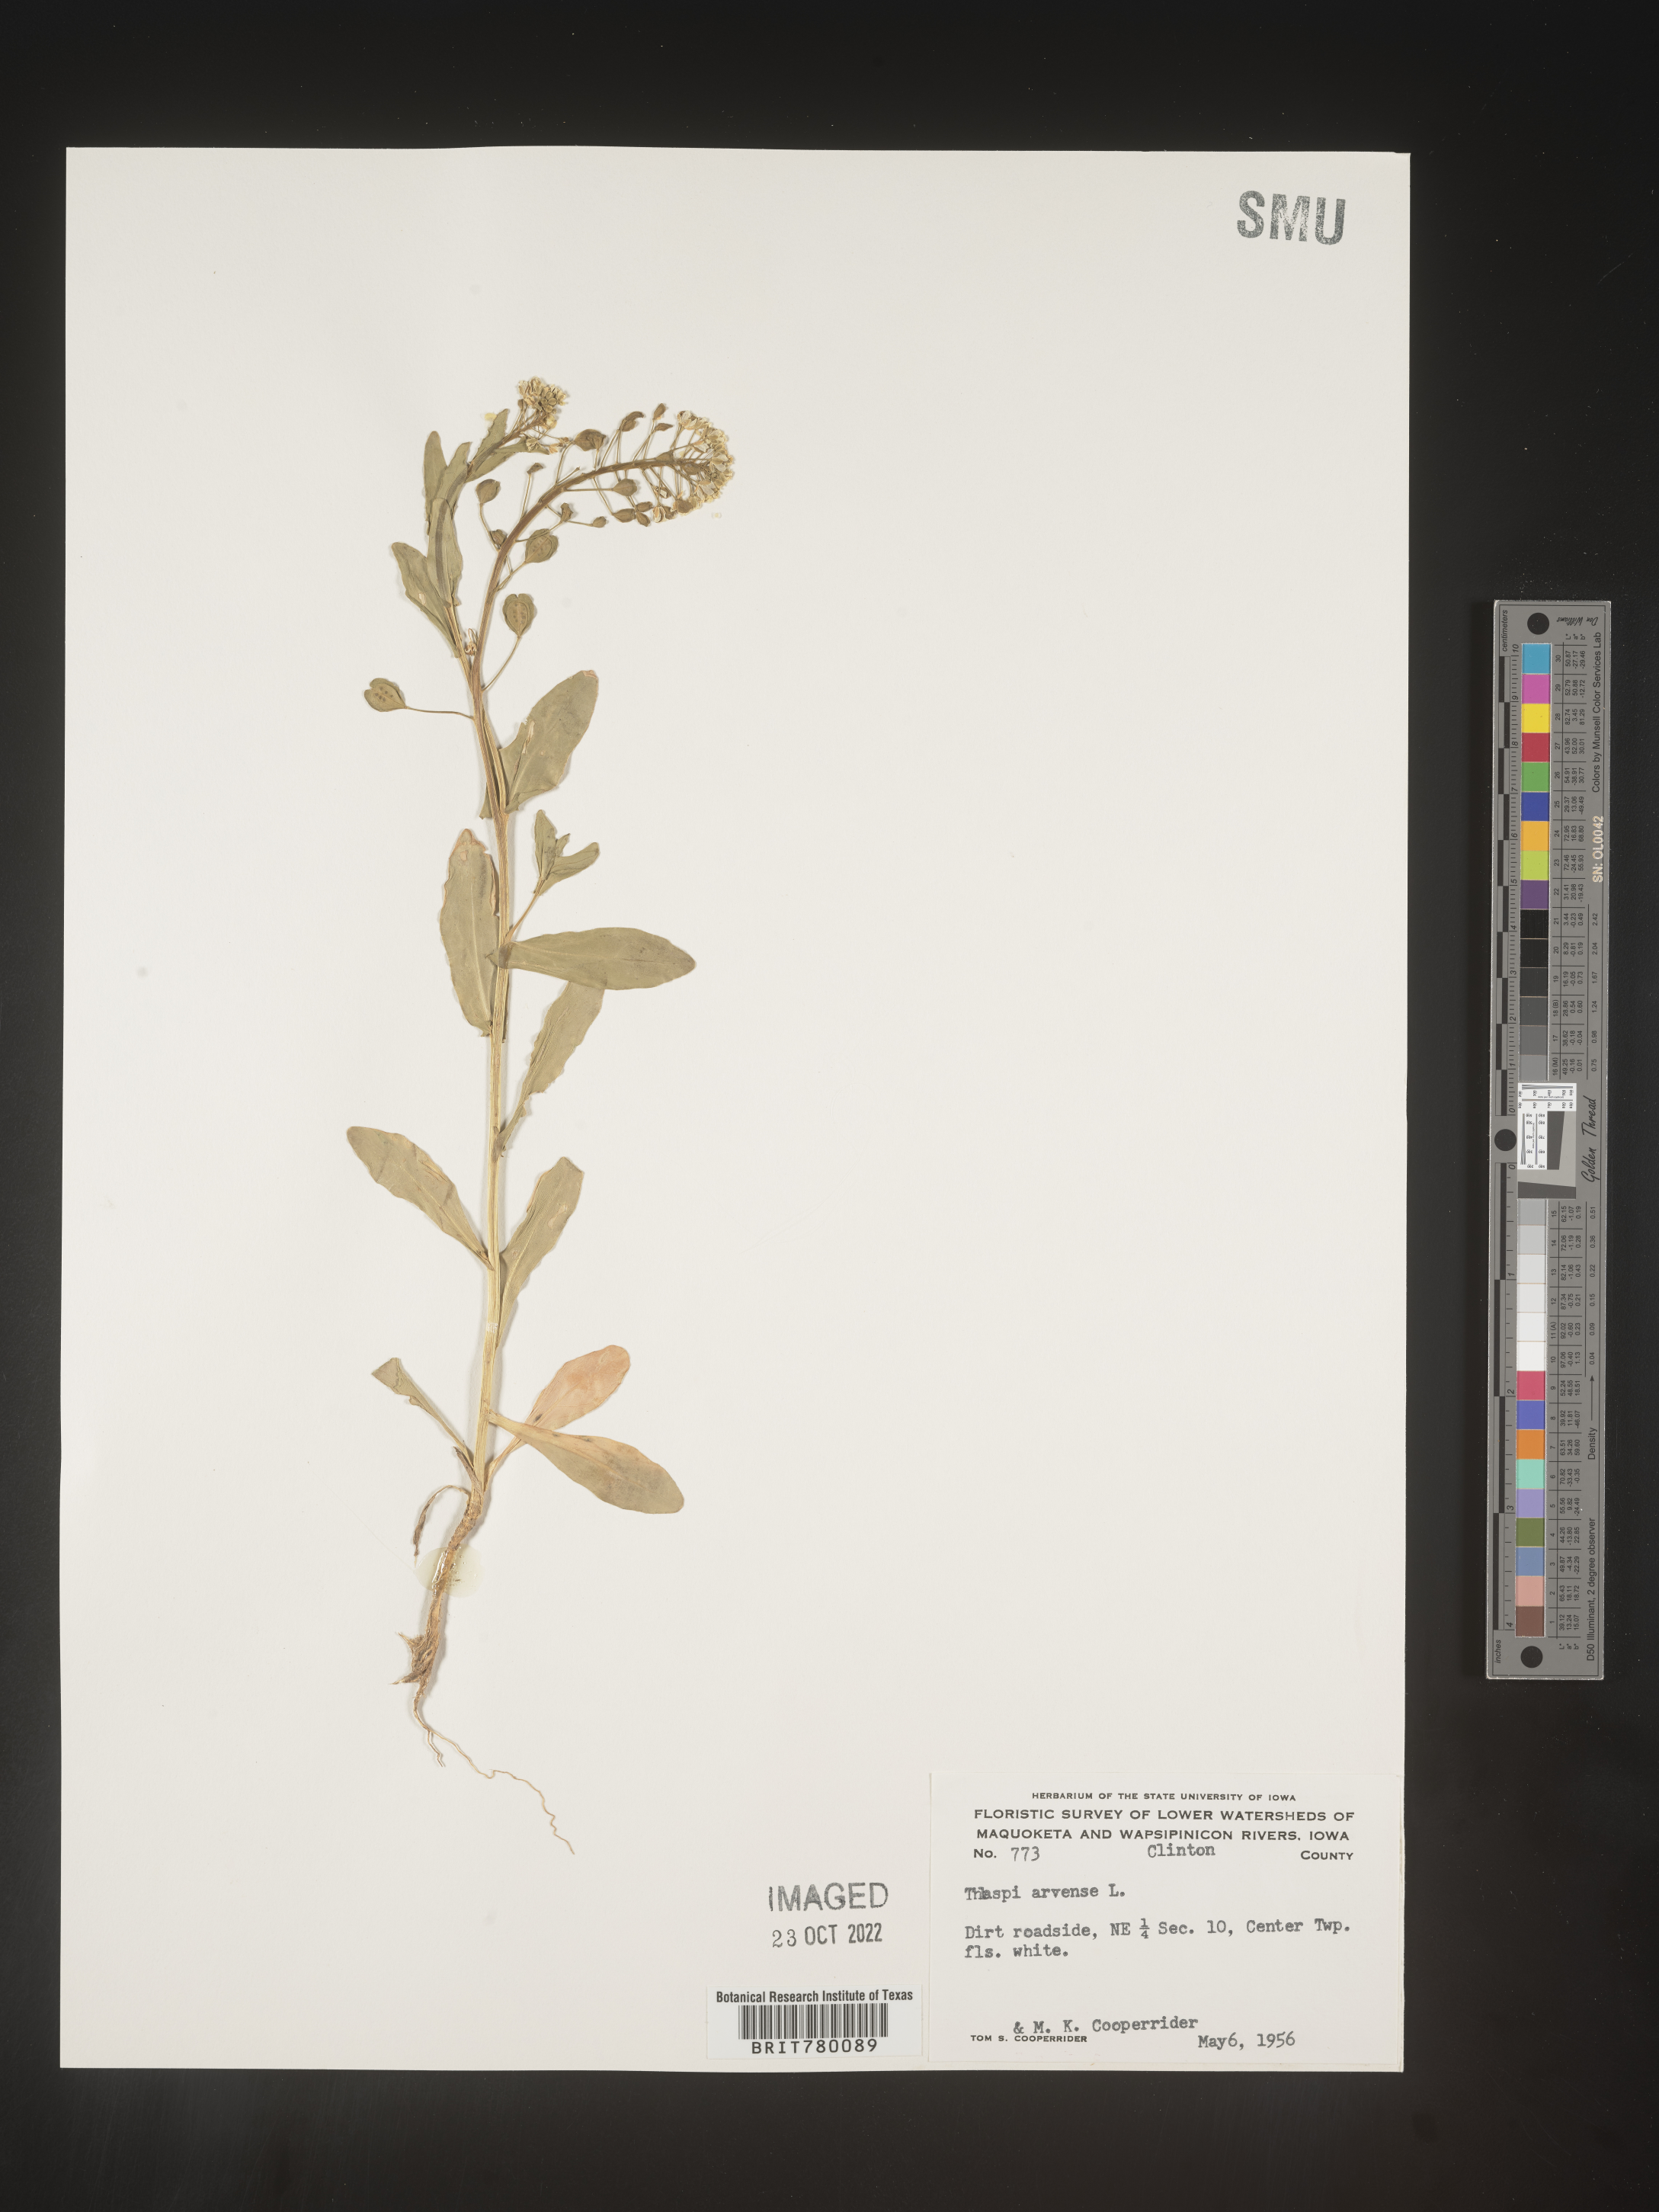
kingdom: Plantae
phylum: Tracheophyta
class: Magnoliopsida
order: Brassicales
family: Brassicaceae
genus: Thlaspi
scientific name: Thlaspi arvense
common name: Field pennycress
